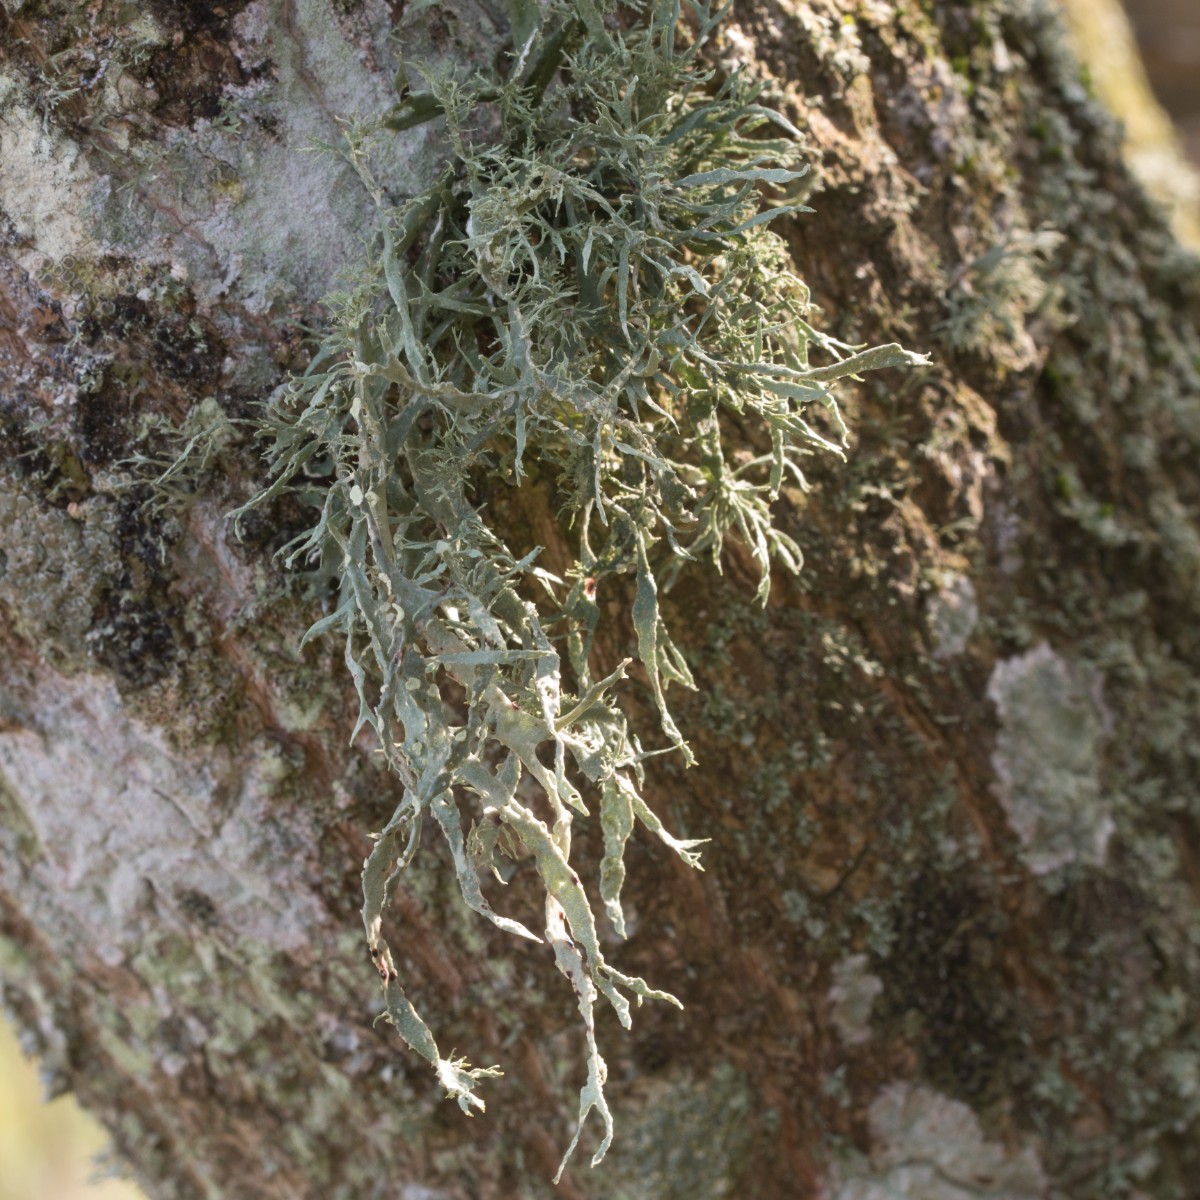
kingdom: Fungi
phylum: Ascomycota
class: Lecanoromycetes
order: Lecanorales
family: Ramalinaceae
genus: Ramalina
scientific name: Ramalina farinacea
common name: melet grenlav
